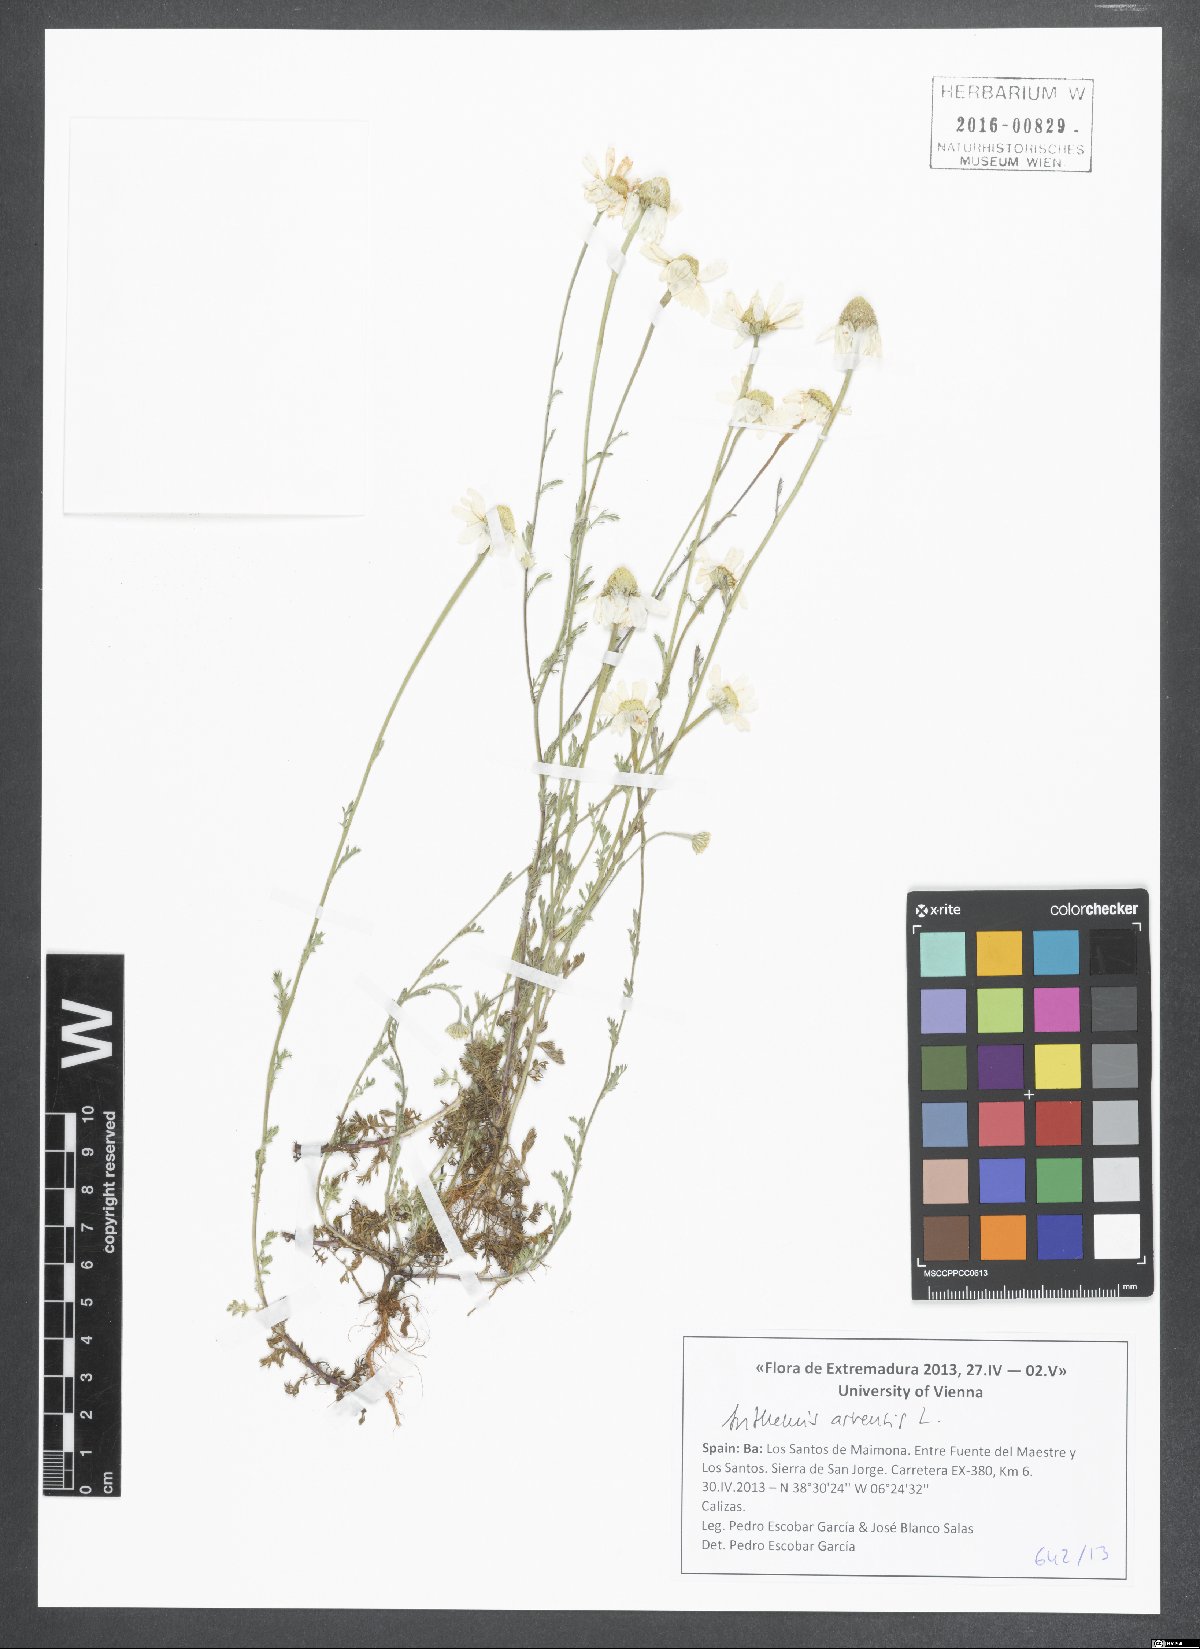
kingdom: Plantae
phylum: Tracheophyta
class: Magnoliopsida
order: Asterales
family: Asteraceae
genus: Anthemis
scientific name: Anthemis arvensis
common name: Corn chamomile
